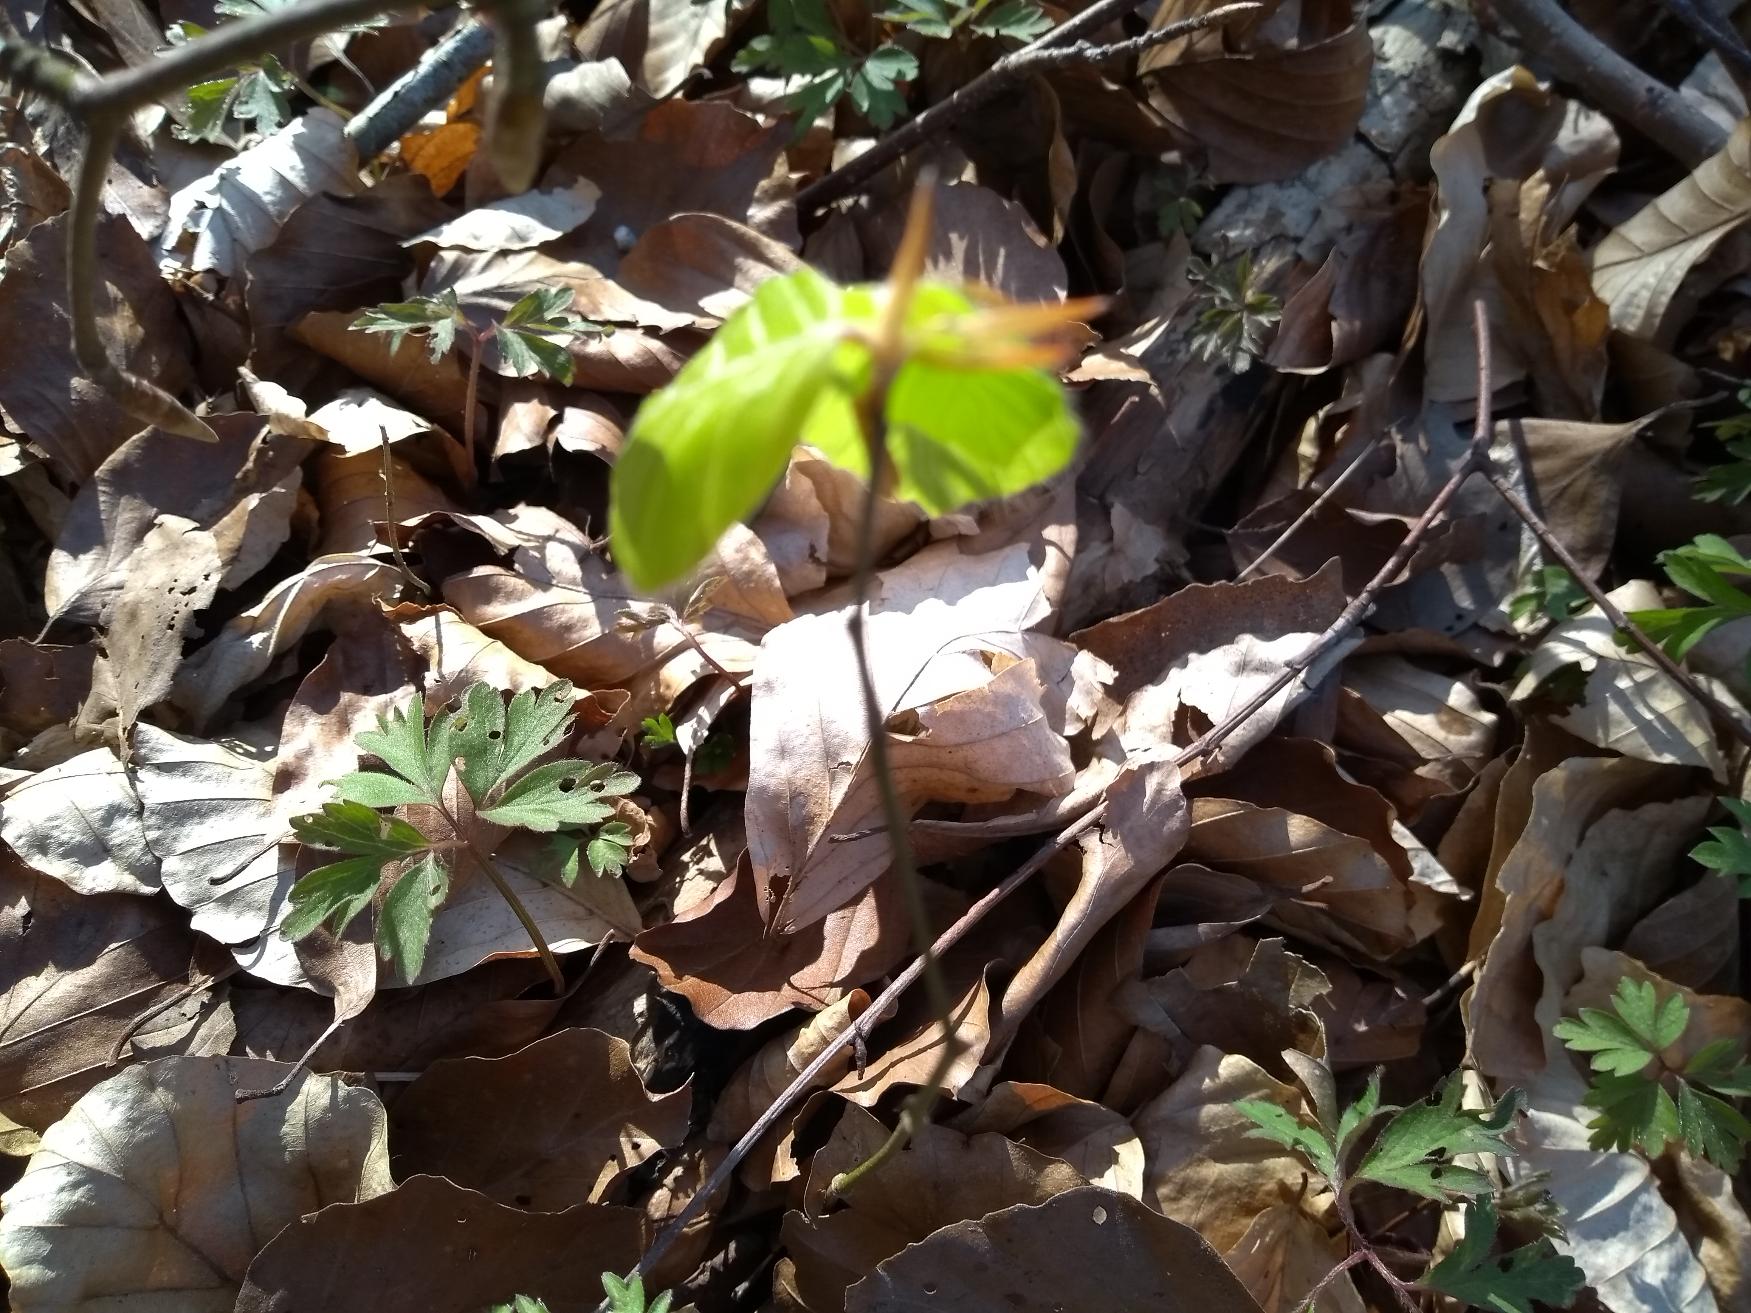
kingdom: Plantae
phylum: Tracheophyta
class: Magnoliopsida
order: Fagales
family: Fagaceae
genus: Fagus
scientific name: Fagus sylvatica
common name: Bøg
